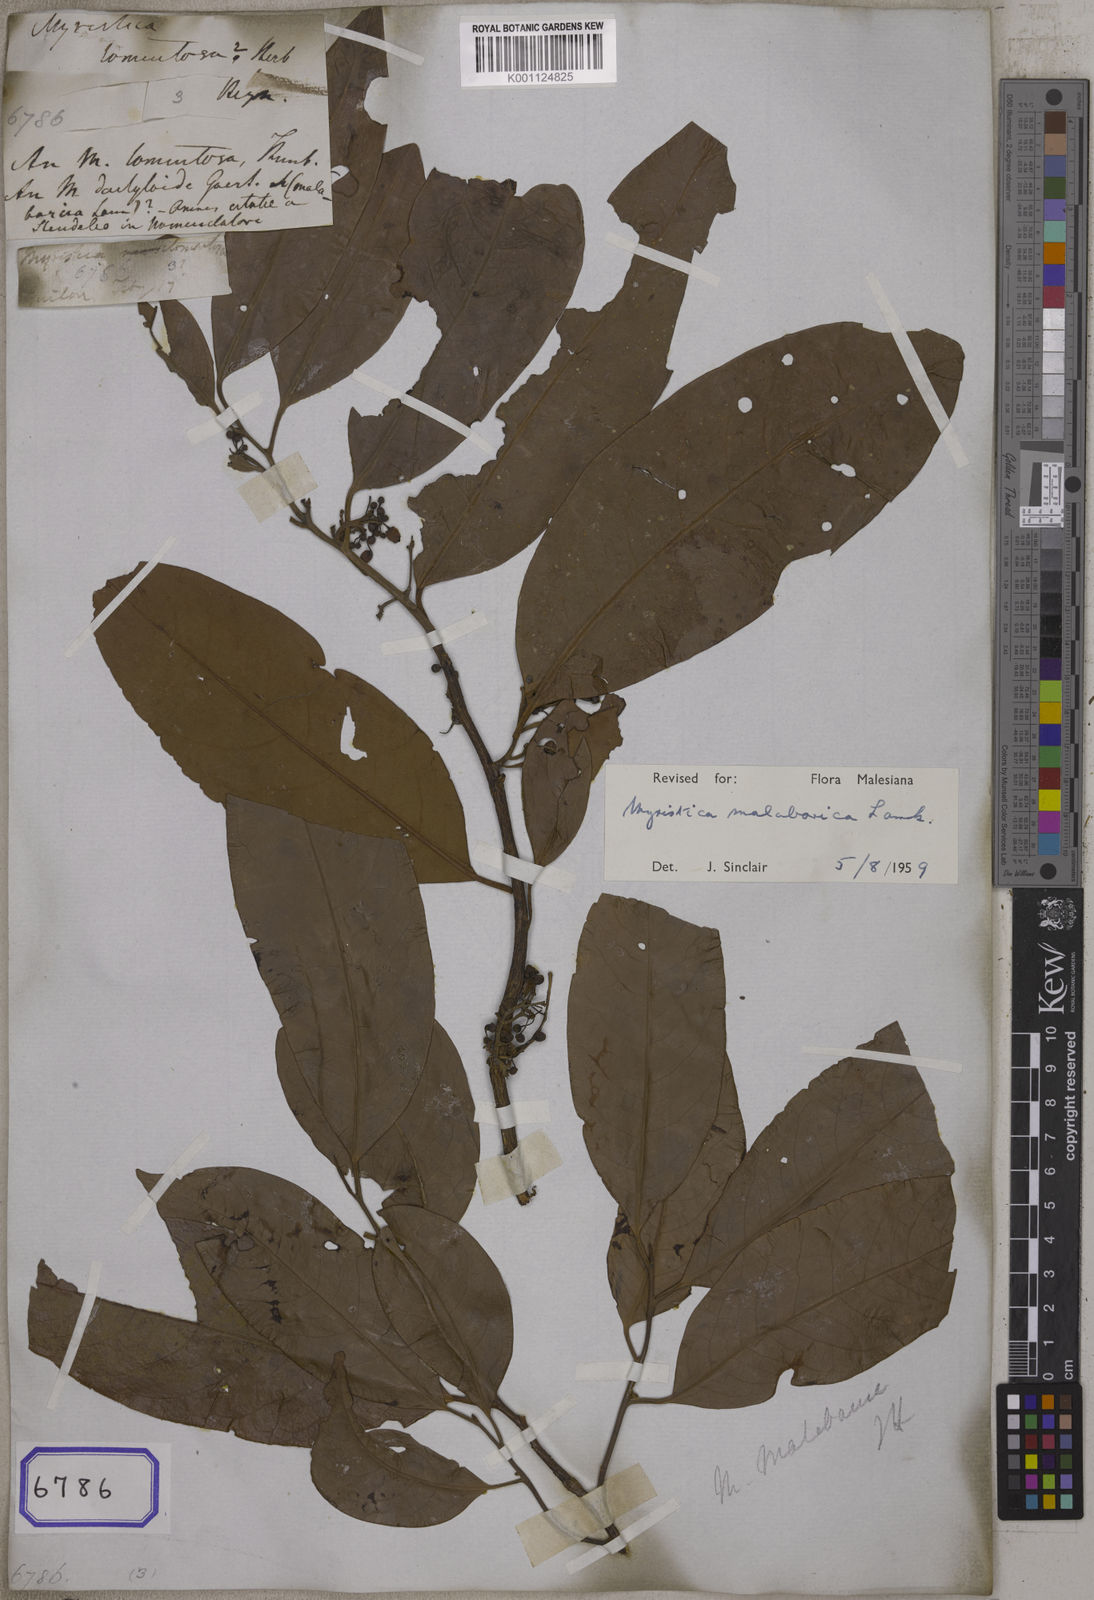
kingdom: Plantae
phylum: Tracheophyta
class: Magnoliopsida
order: Magnoliales
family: Myristicaceae
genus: Myristica
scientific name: Myristica malabarica
